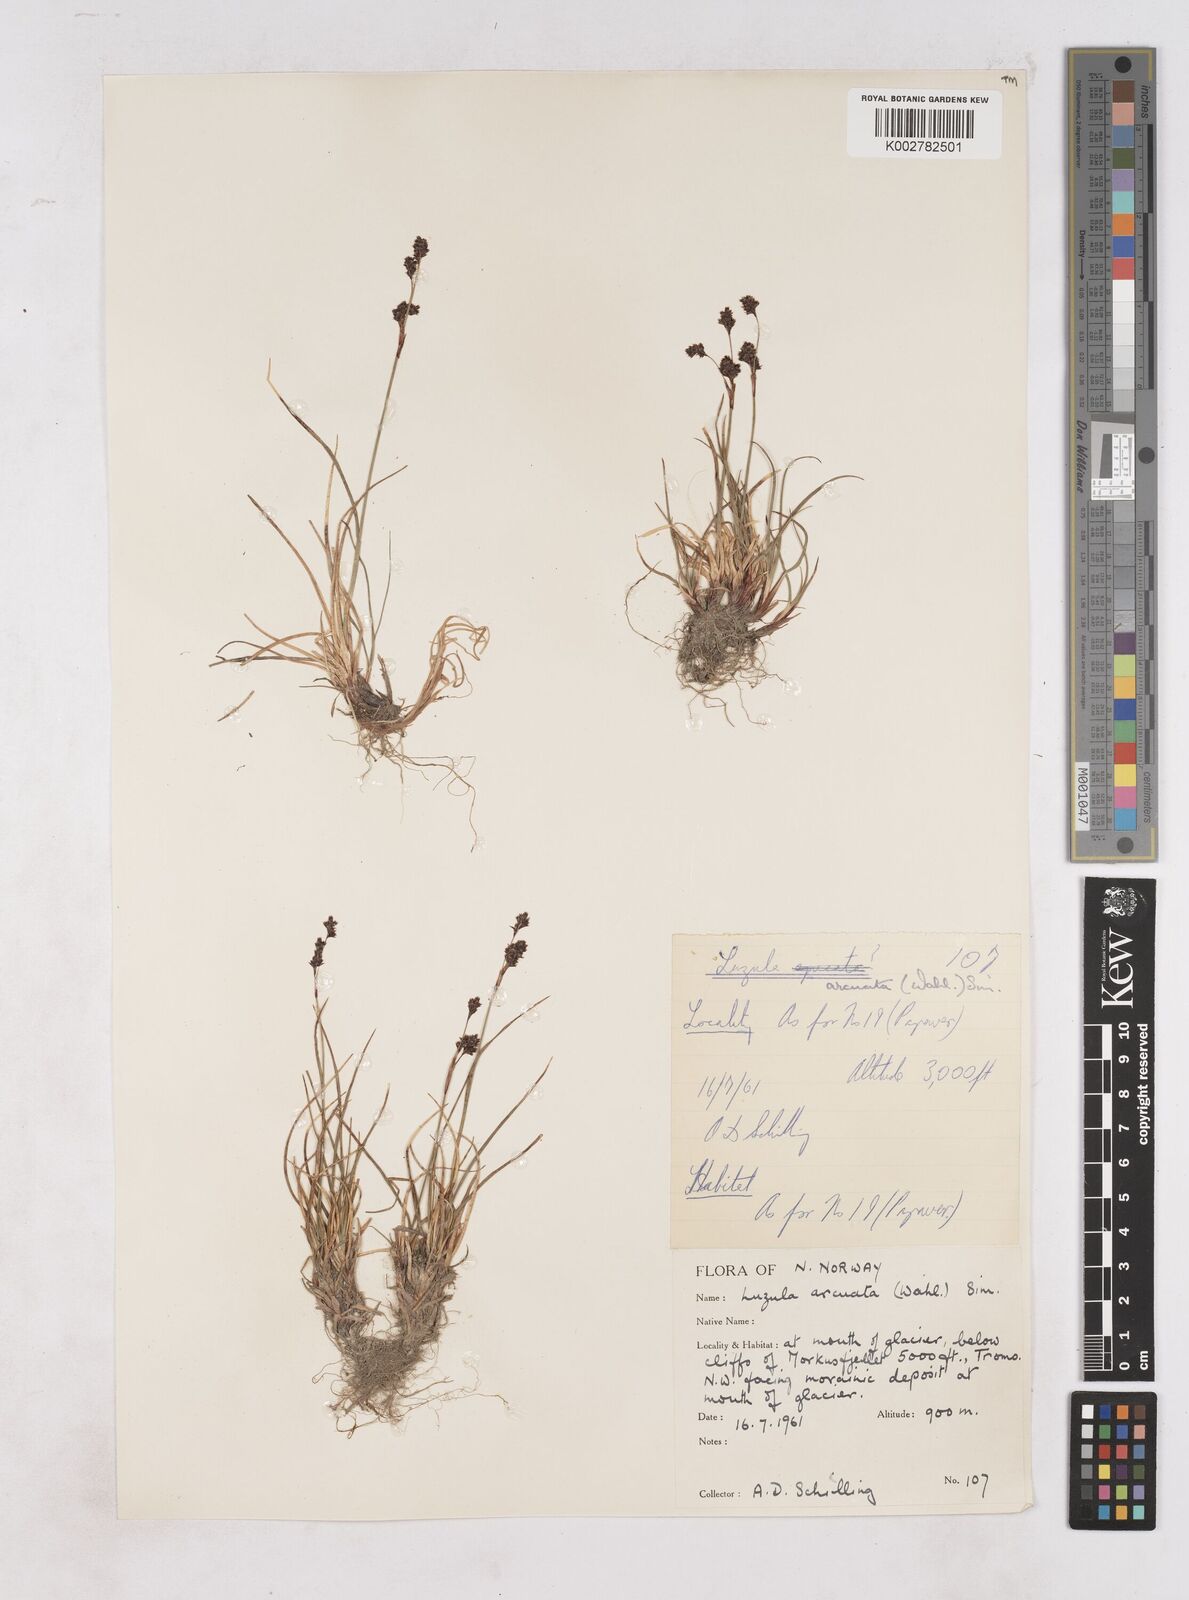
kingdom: Plantae
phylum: Tracheophyta
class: Liliopsida
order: Poales
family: Juncaceae
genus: Luzula
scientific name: Luzula arcuata
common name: Curved wood-rush
